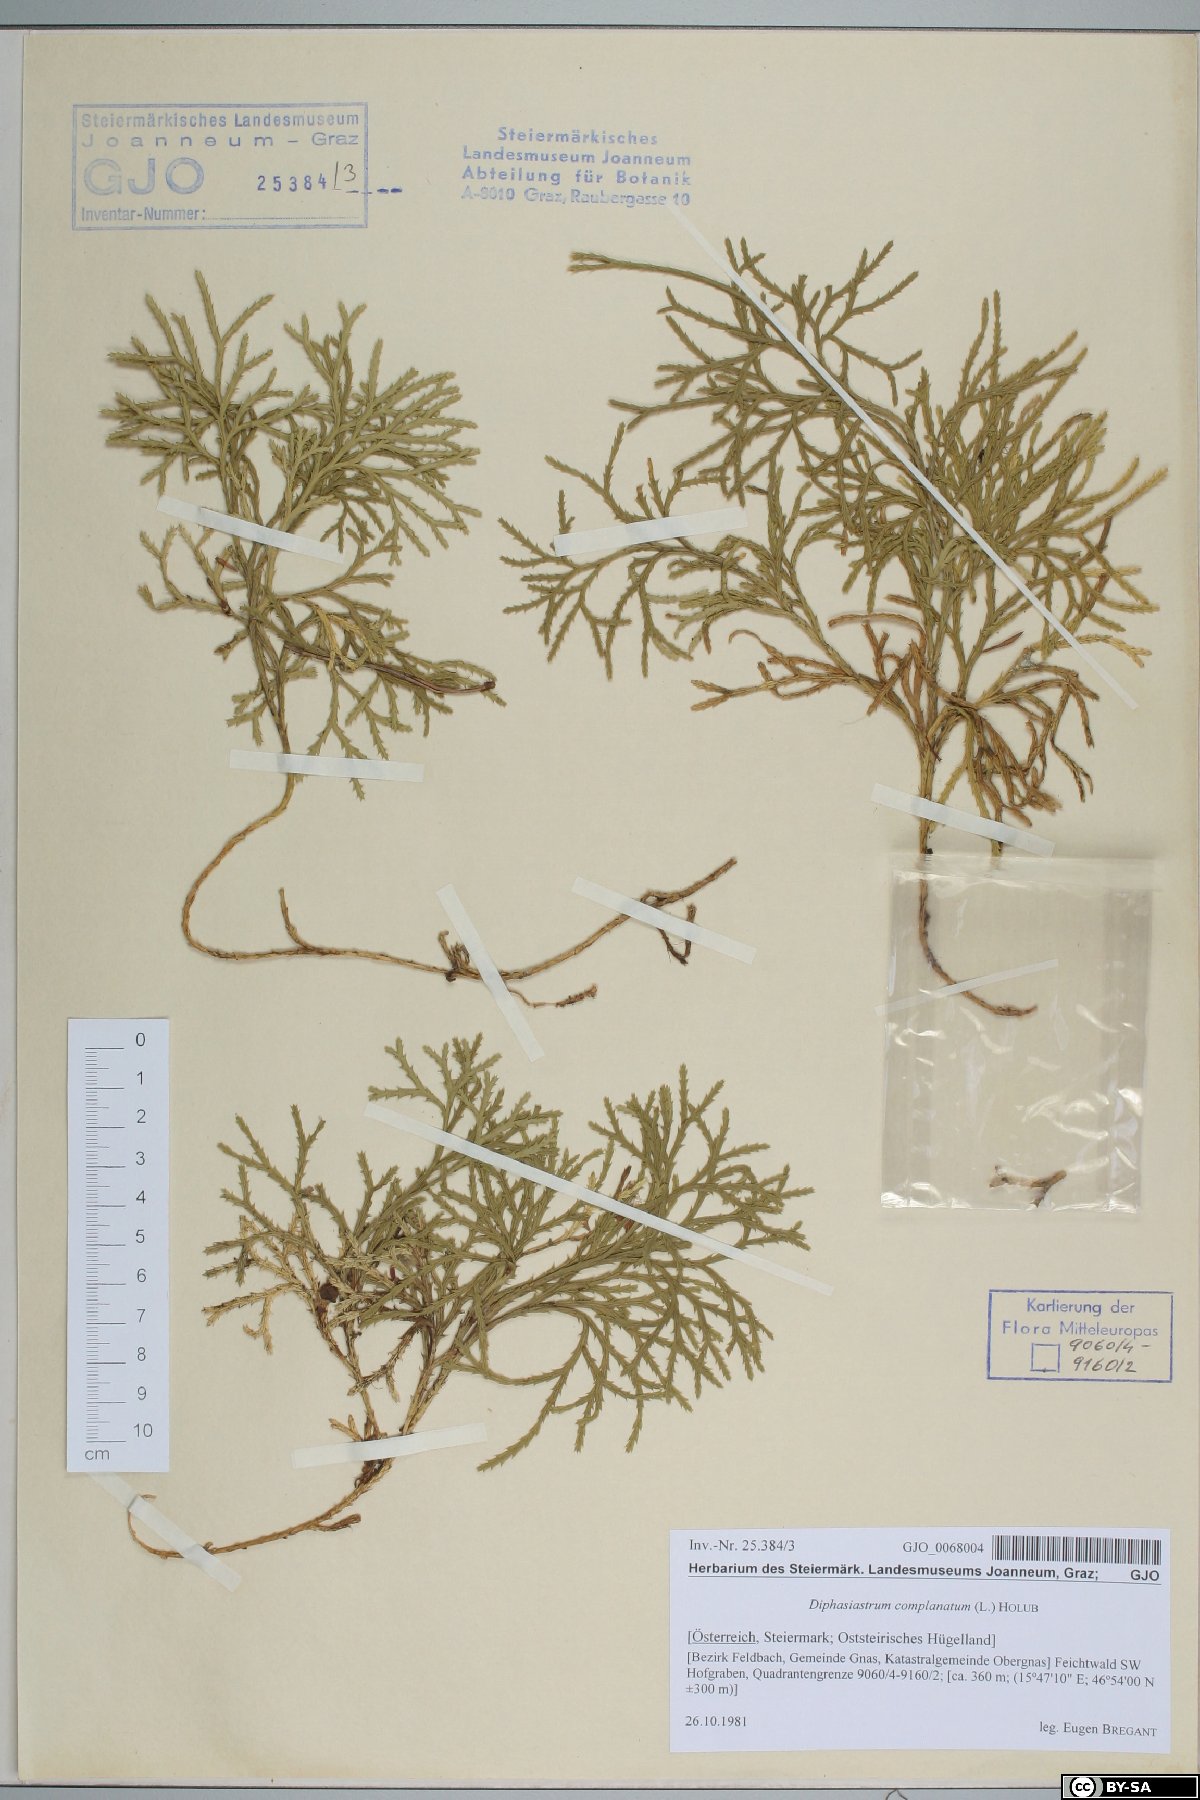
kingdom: Plantae
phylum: Tracheophyta
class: Lycopodiopsida
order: Lycopodiales
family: Lycopodiaceae
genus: Diphasiastrum
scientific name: Diphasiastrum complanatum
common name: Northern running-pine
